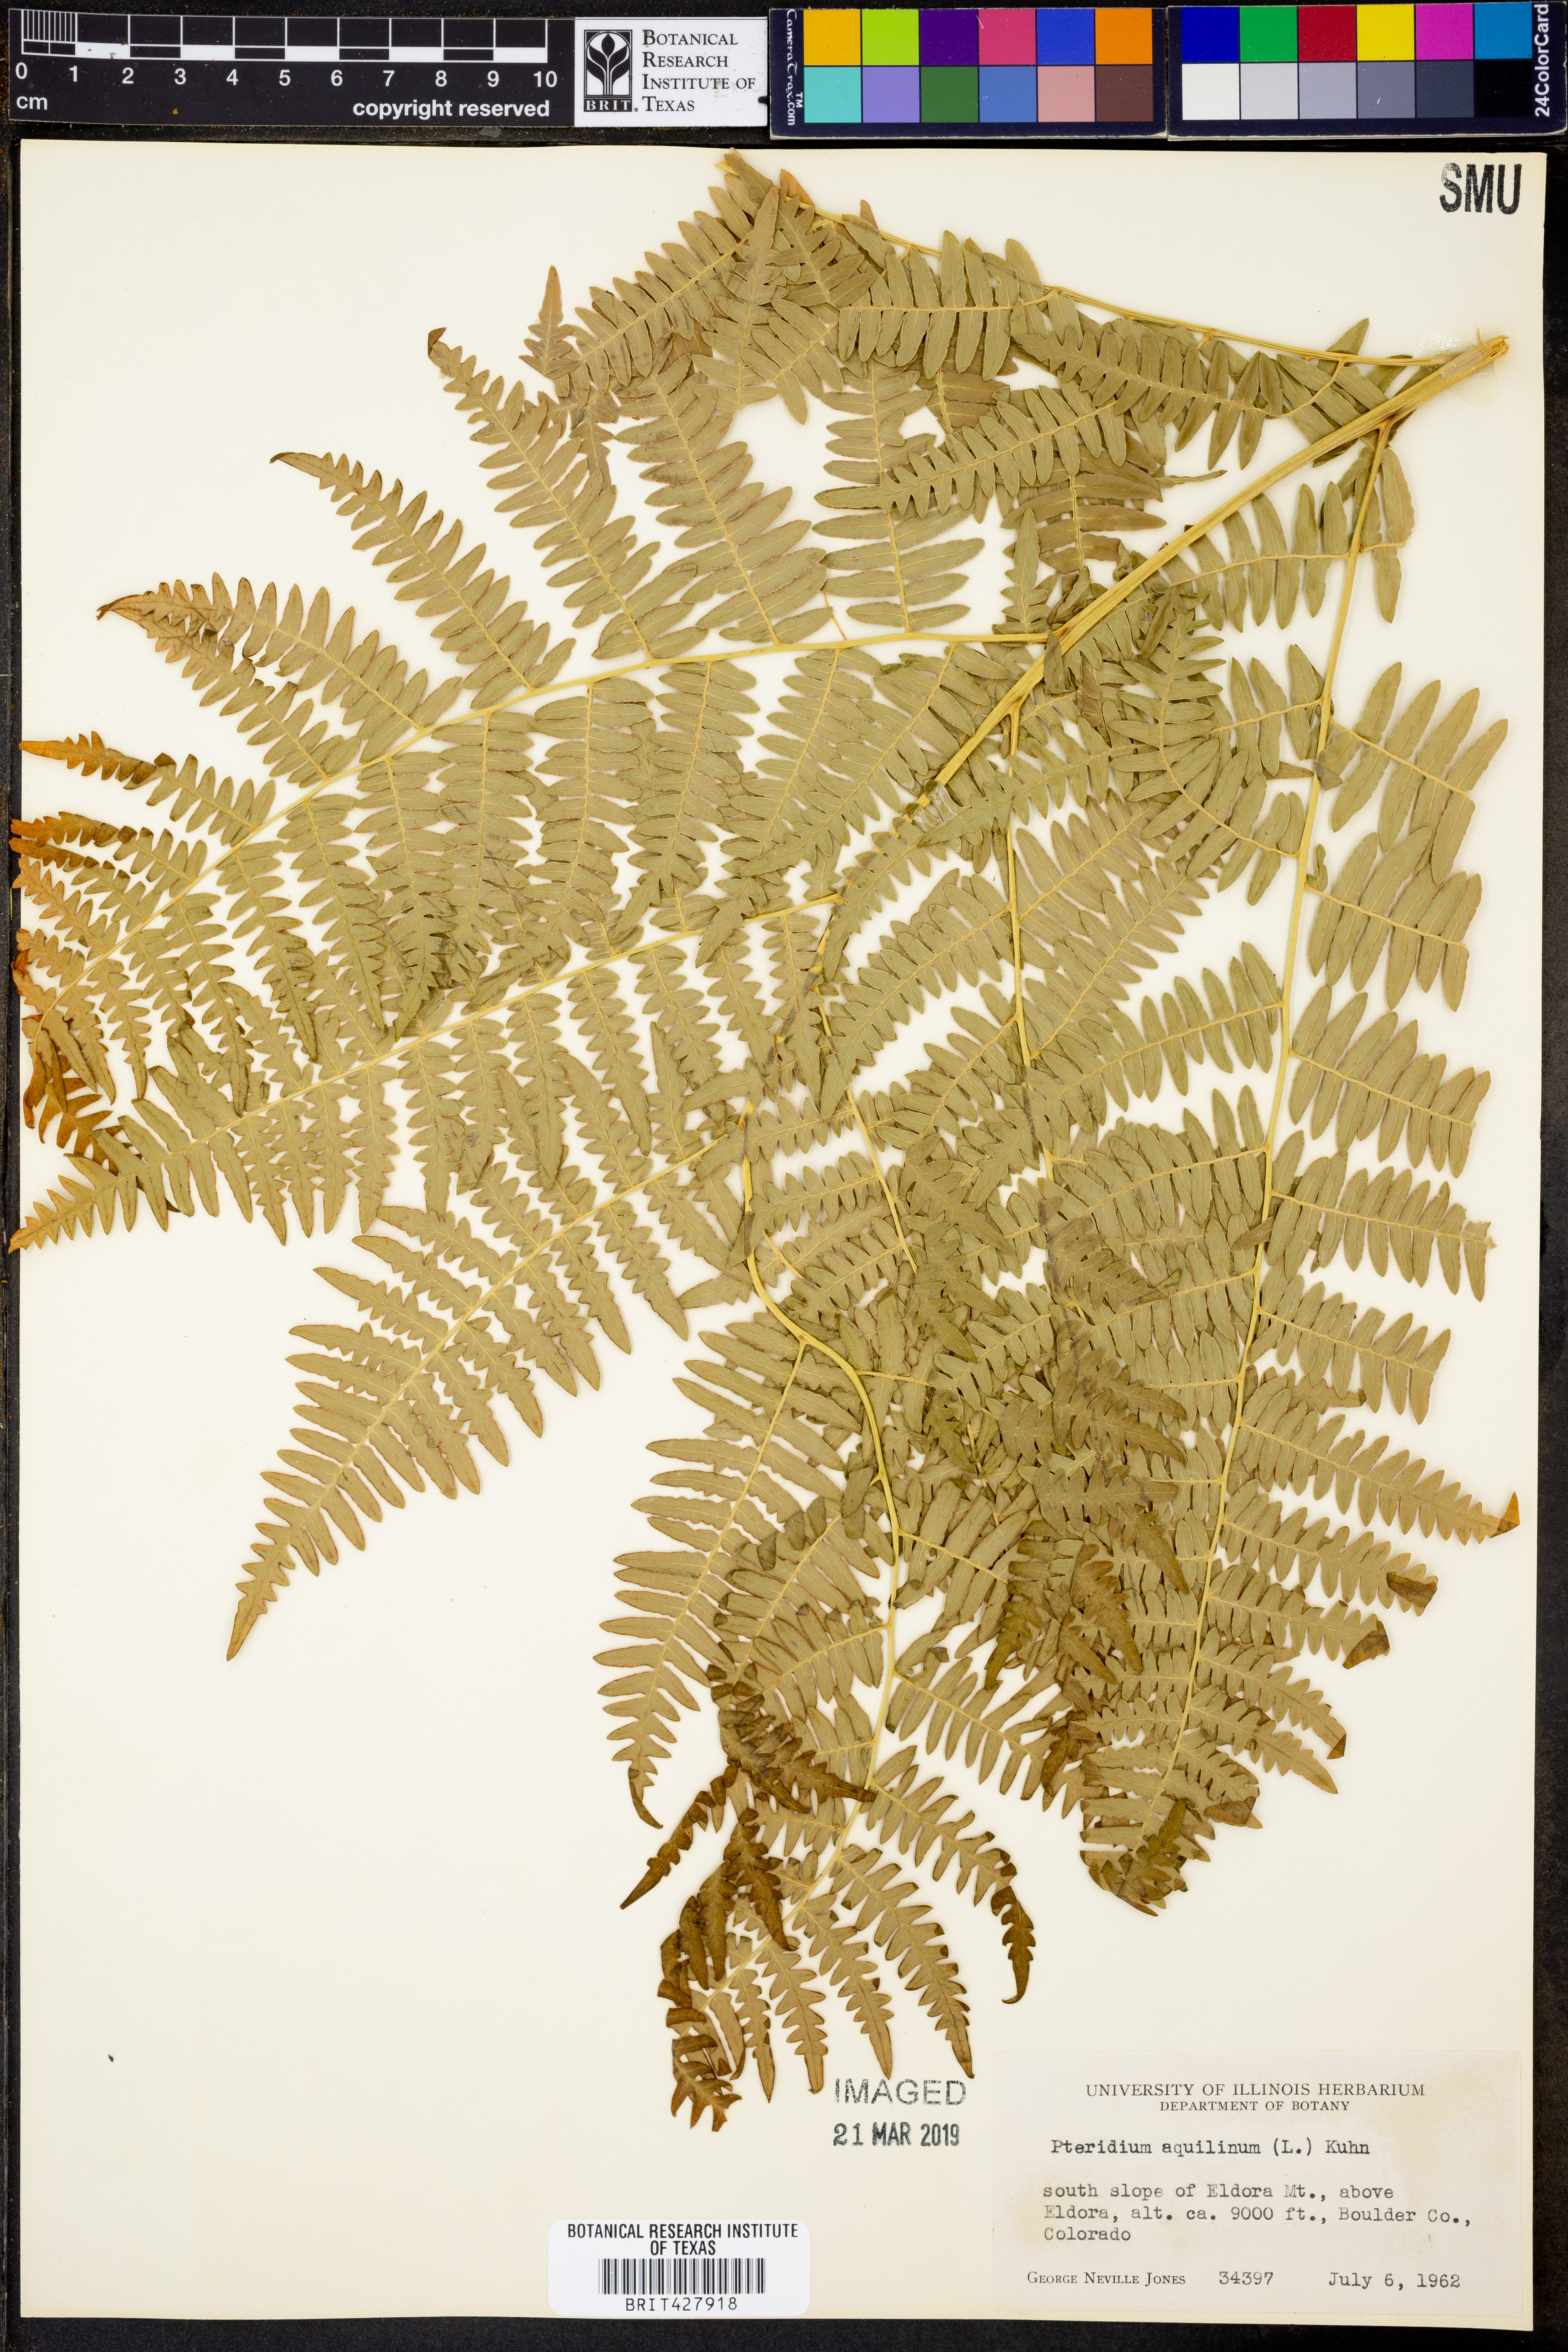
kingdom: Plantae
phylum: Tracheophyta
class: Polypodiopsida
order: Polypodiales
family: Dennstaedtiaceae
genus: Pteridium
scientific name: Pteridium aquilinum
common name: Bracken
